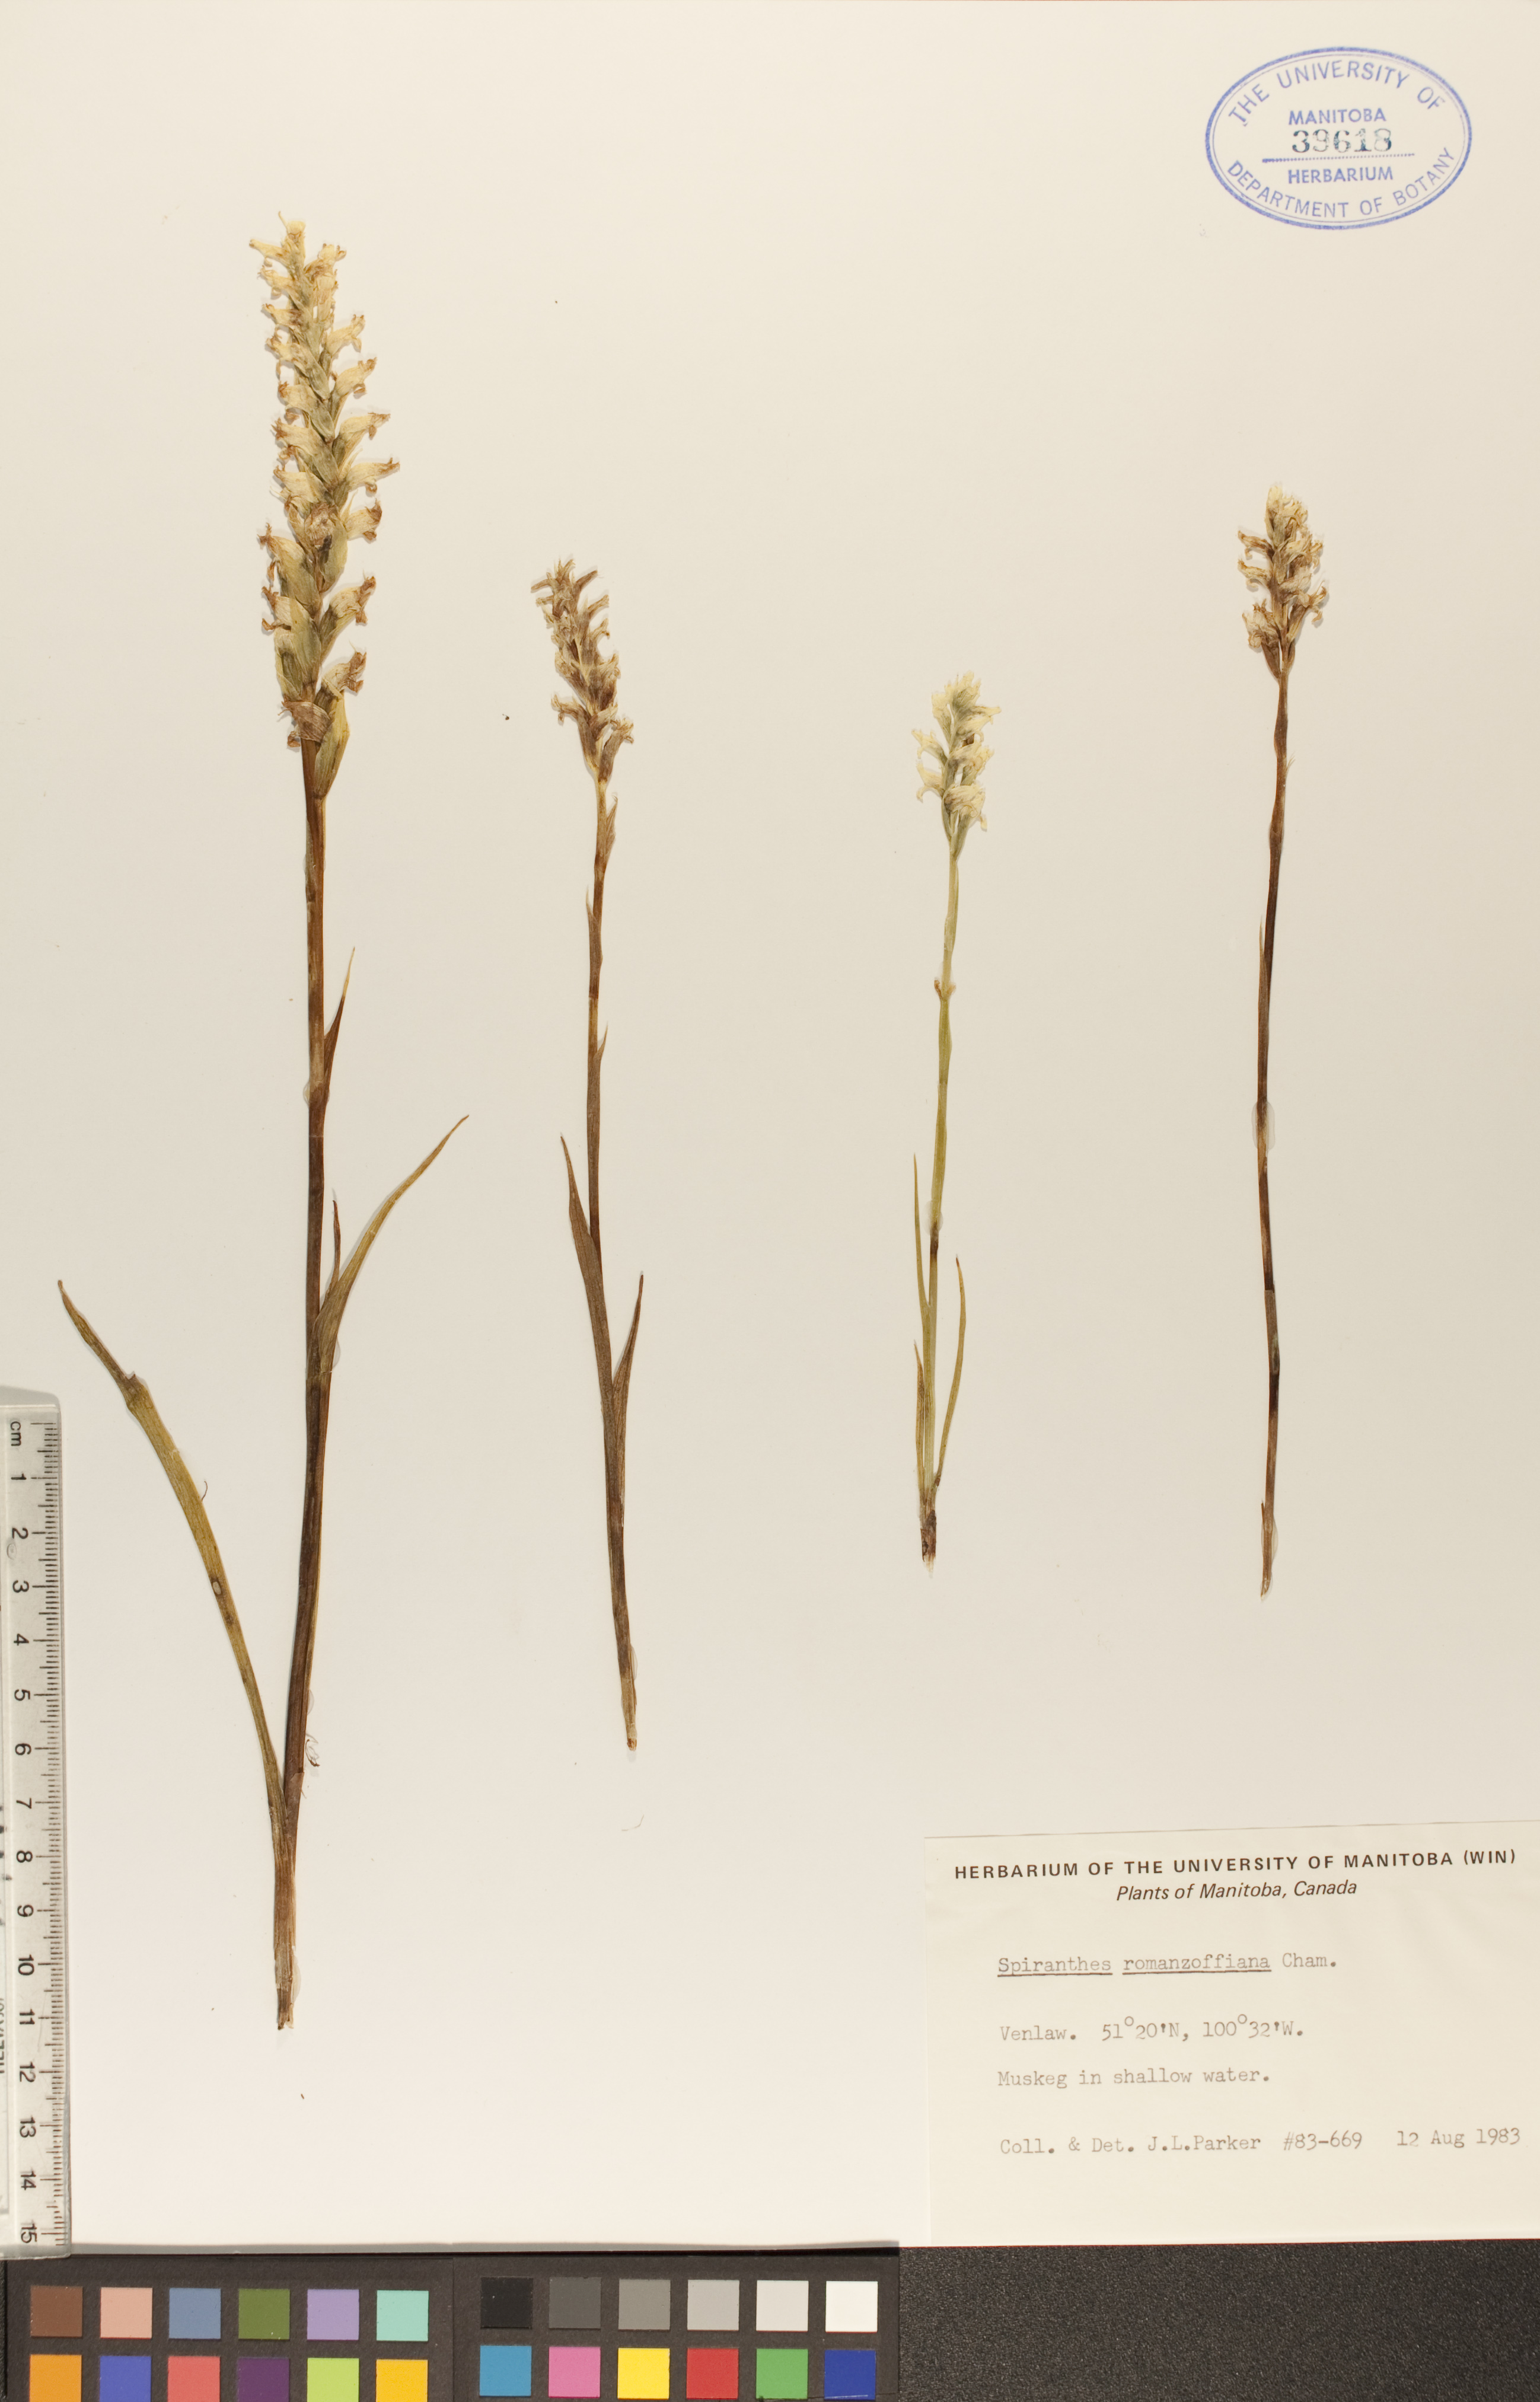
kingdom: Plantae
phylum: Tracheophyta
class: Liliopsida
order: Asparagales
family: Orchidaceae
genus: Spiranthes
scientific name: Spiranthes romanzoffiana
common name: Irish lady's-tresses
